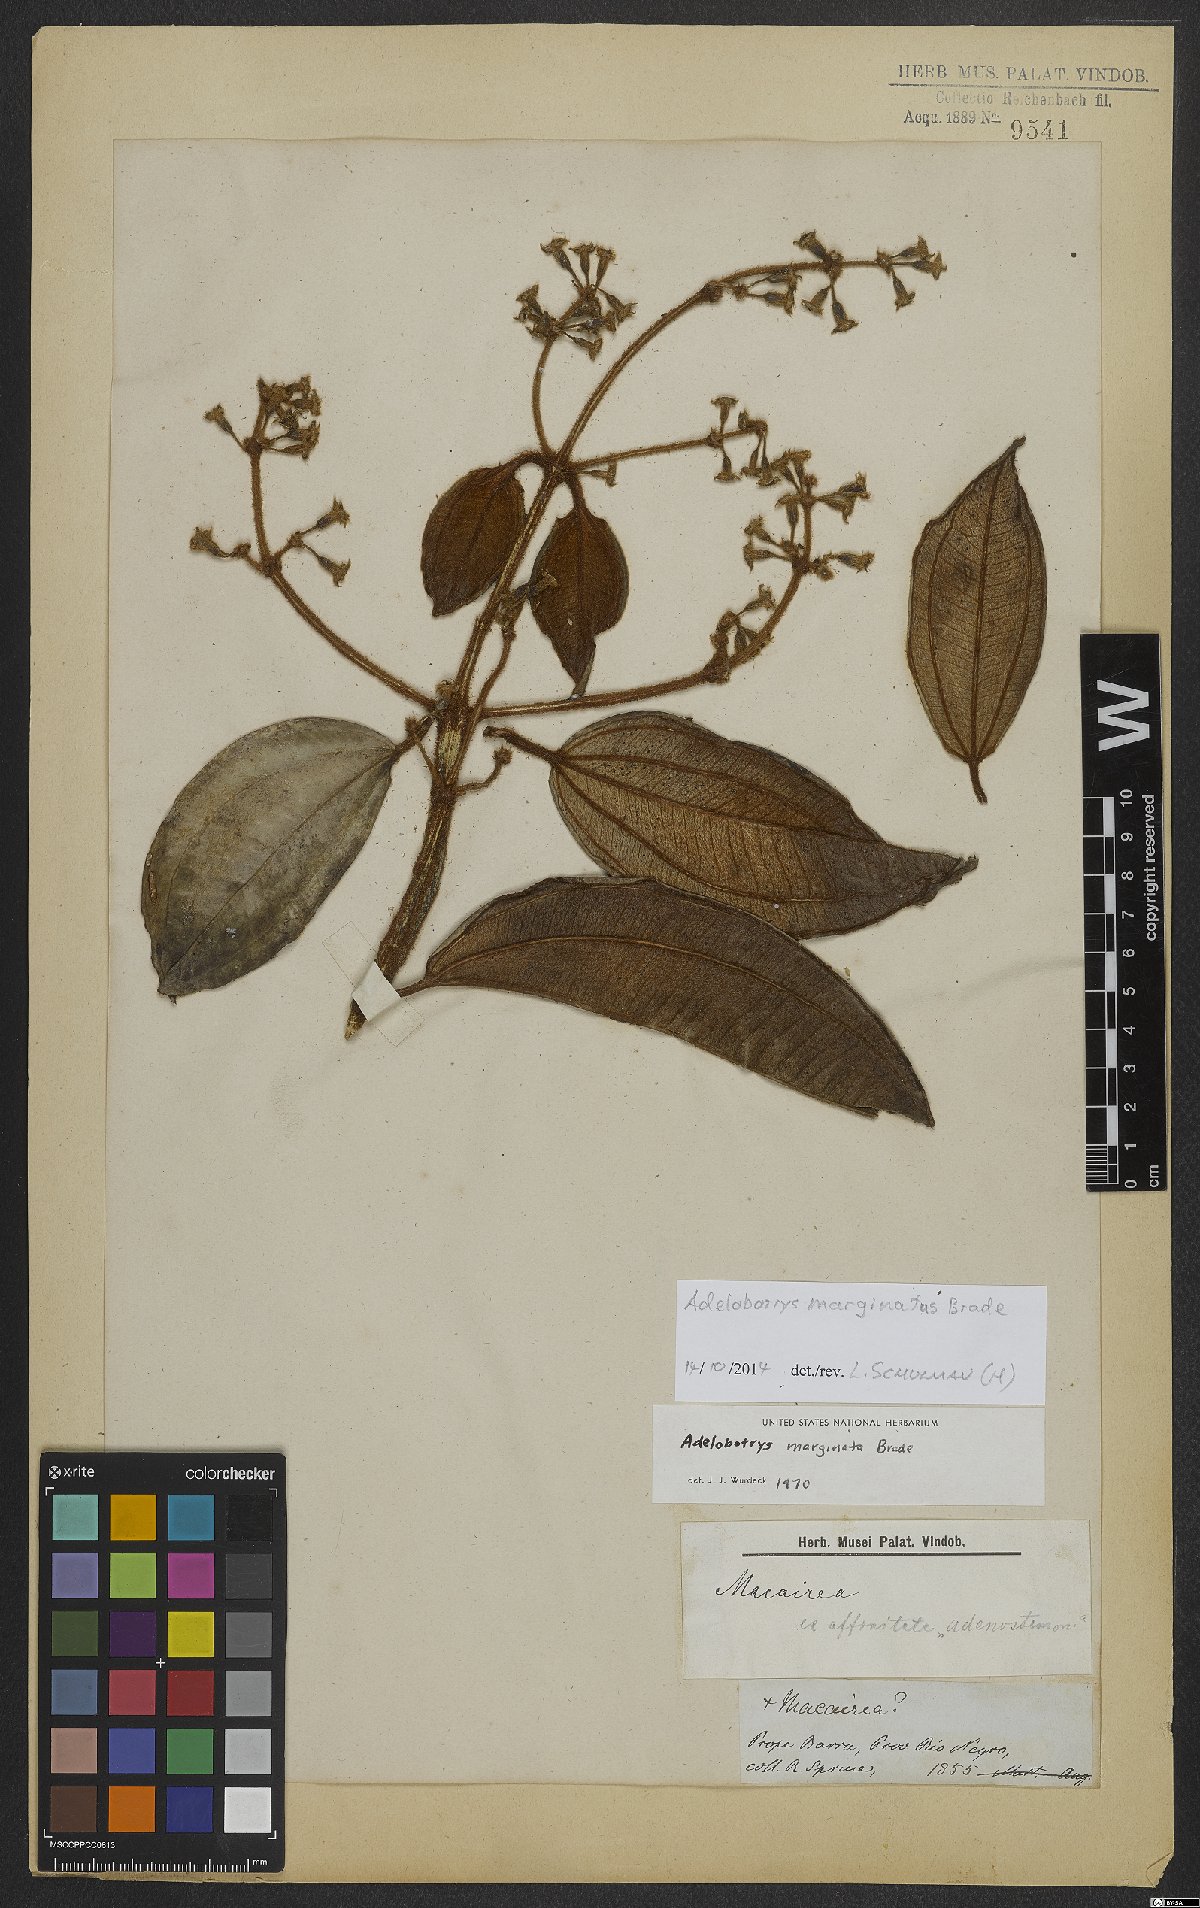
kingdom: Plantae
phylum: Tracheophyta
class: Magnoliopsida
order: Myrtales
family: Melastomataceae
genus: Adelobotrys
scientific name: Adelobotrys marginatus
